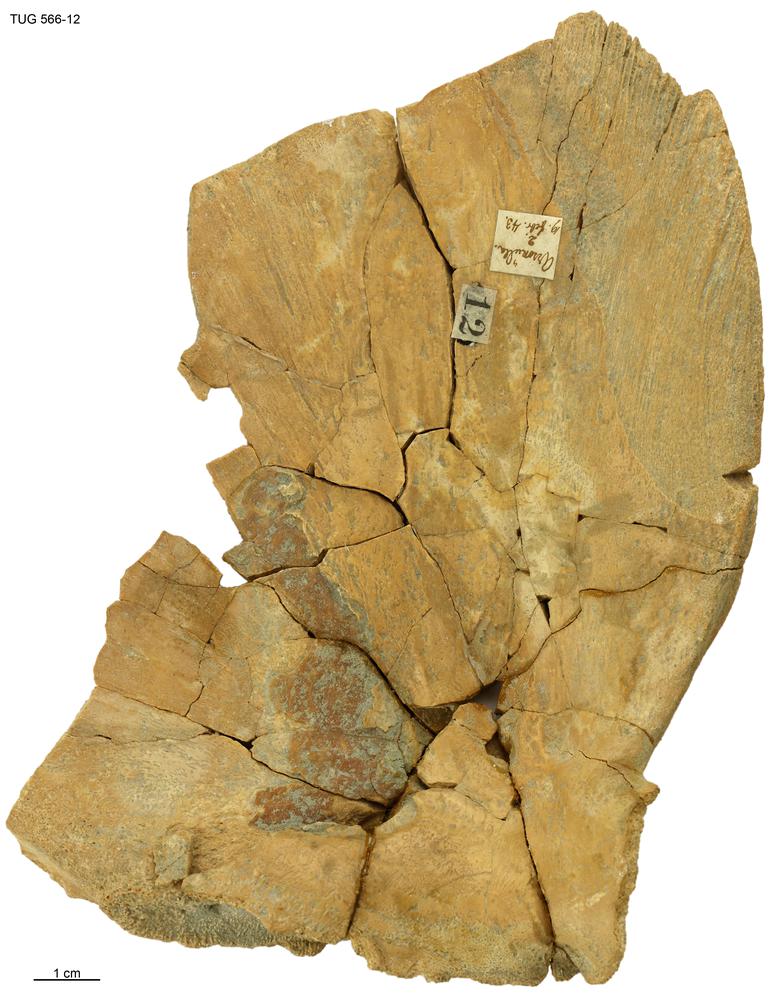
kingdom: Animalia
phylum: Chordata
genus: Homosteus
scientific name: Homosteus sulcatus
